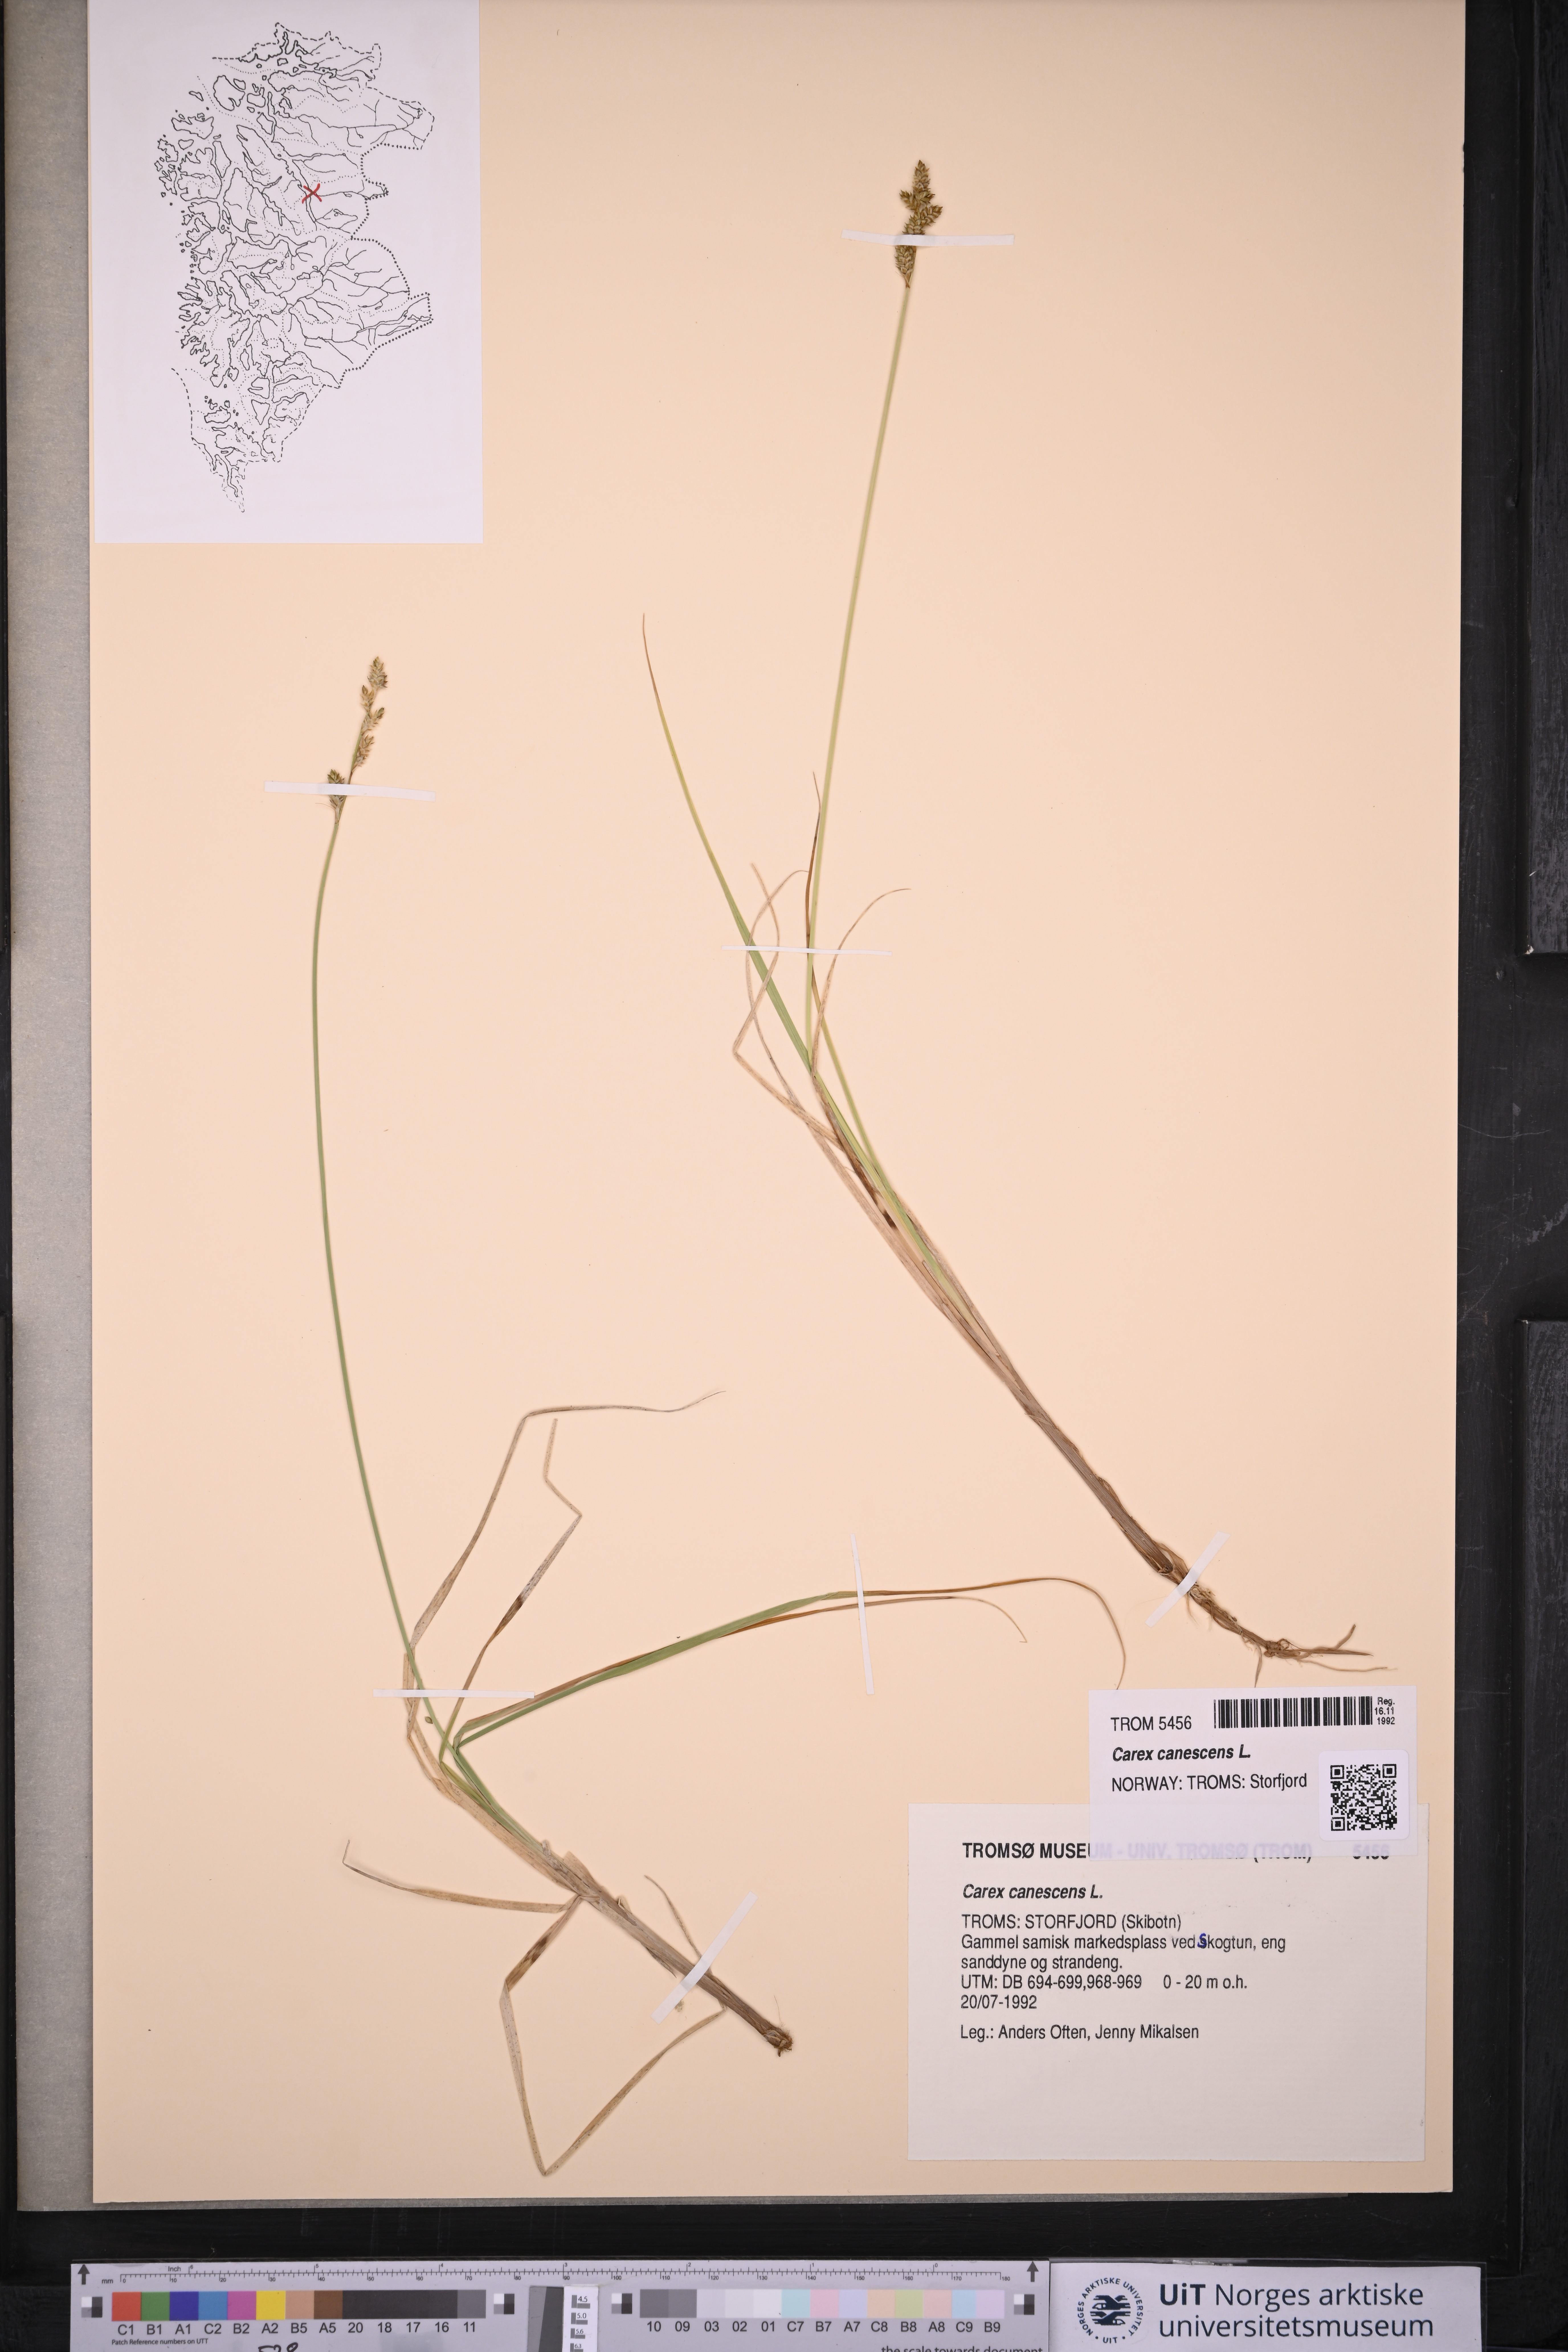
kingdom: Plantae
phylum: Tracheophyta
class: Liliopsida
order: Poales
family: Cyperaceae
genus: Carex
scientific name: Carex canescens
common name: White sedge
